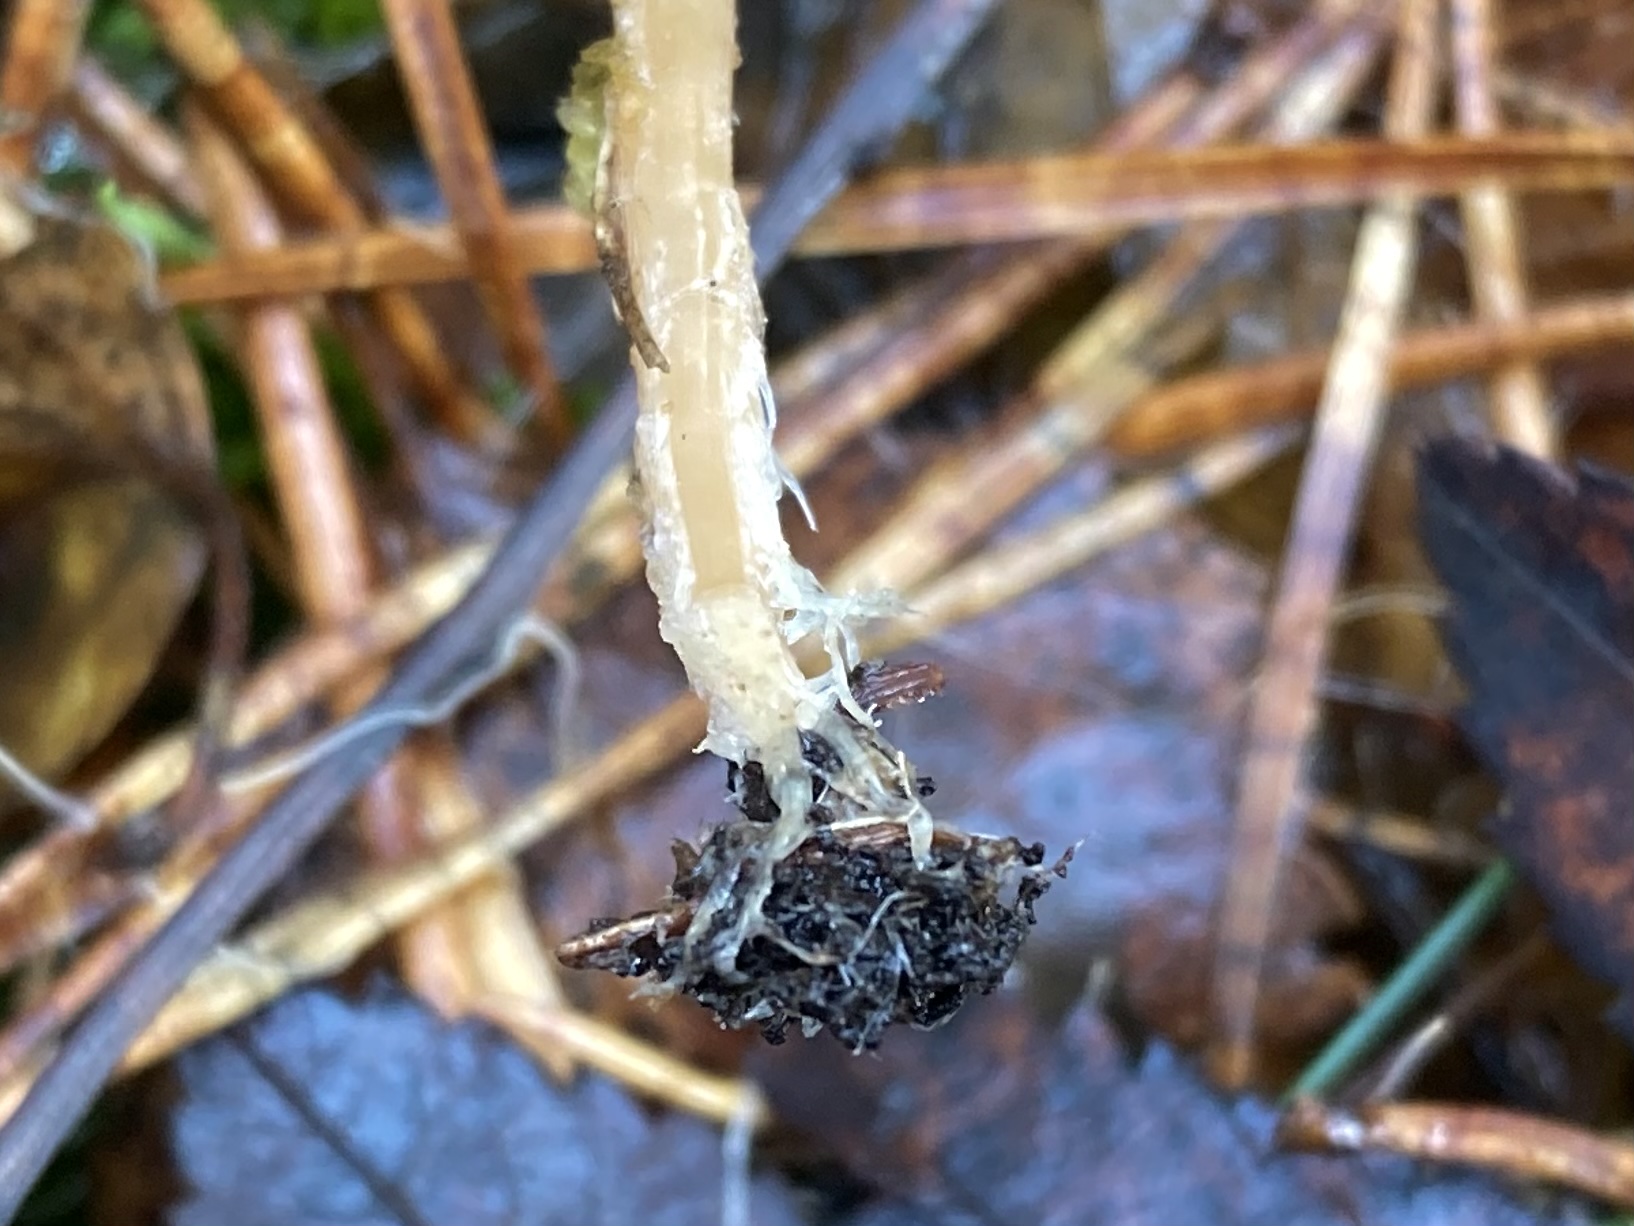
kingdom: Fungi
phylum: Basidiomycota
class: Agaricomycetes
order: Agaricales
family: Marasmiaceae
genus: Baeospora
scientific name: Baeospora myosura
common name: koglebruskhat
